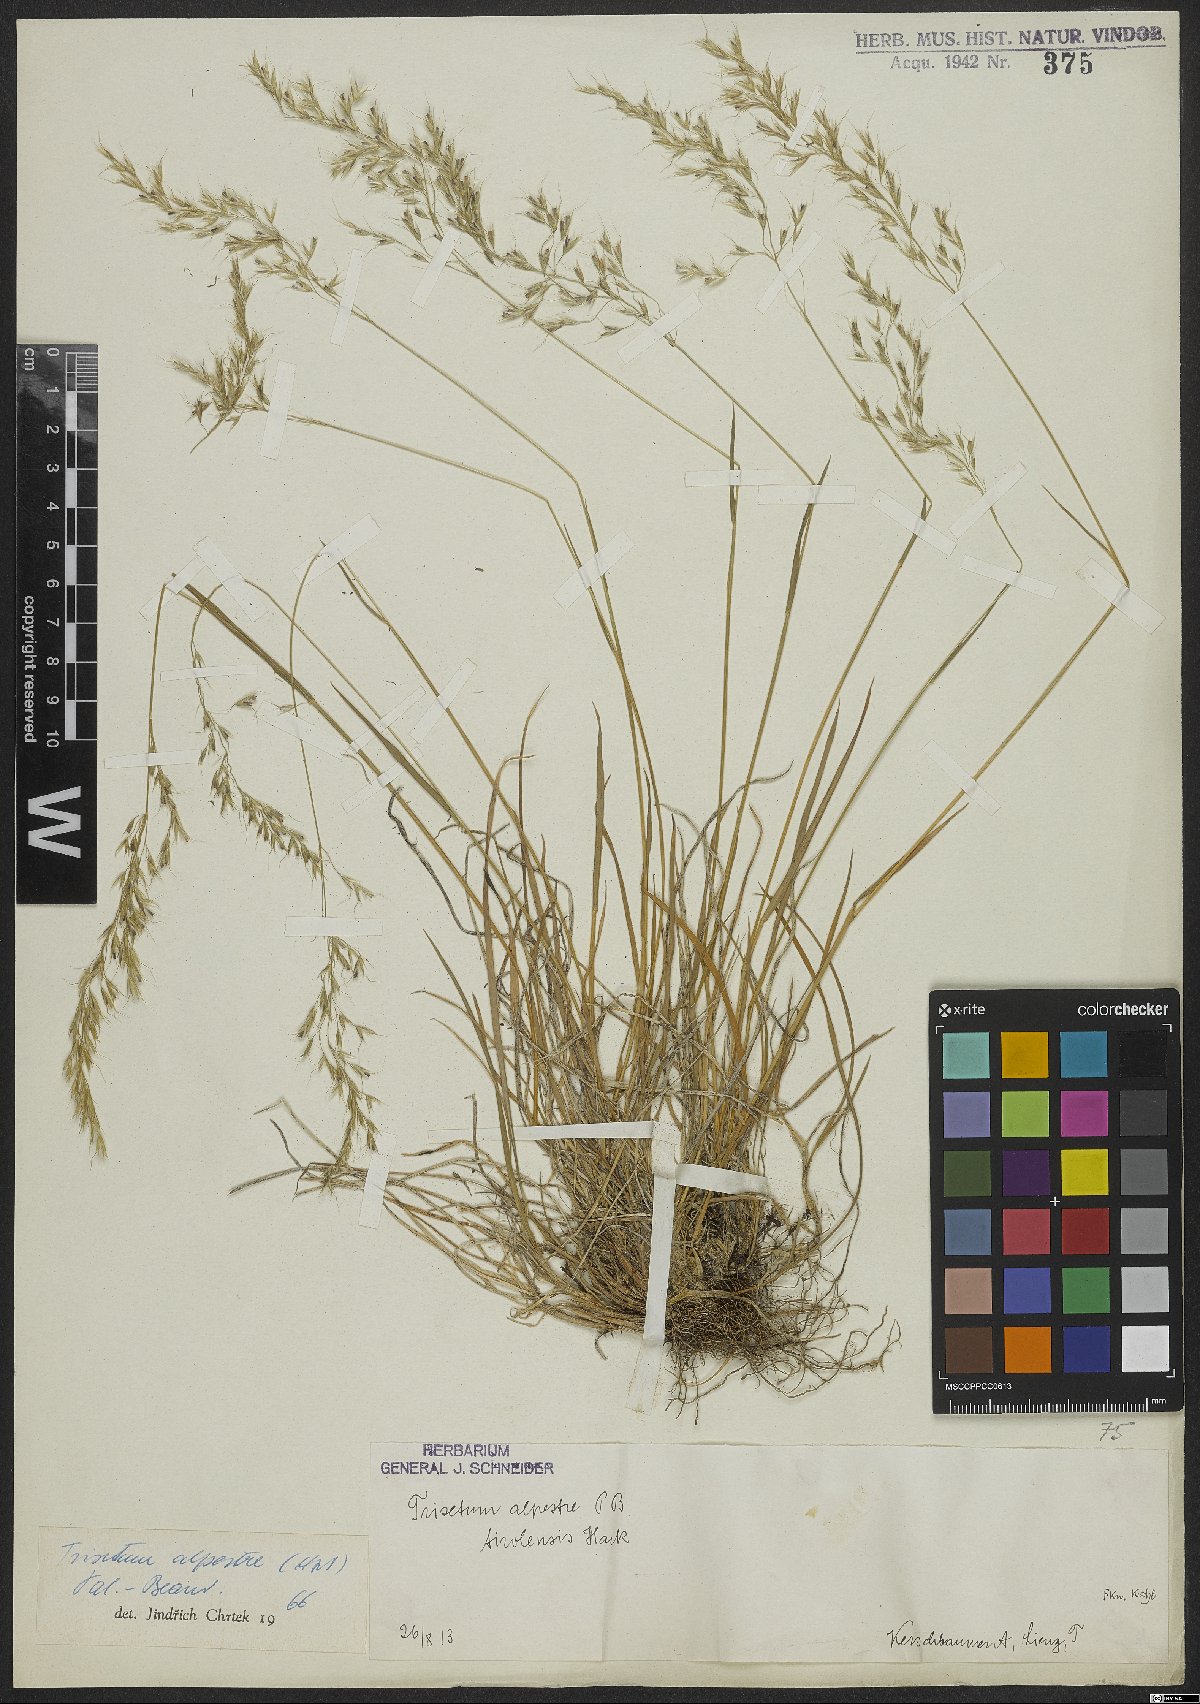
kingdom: Plantae
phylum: Tracheophyta
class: Liliopsida
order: Poales
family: Poaceae
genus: Trisetum
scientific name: Trisetum alpestre
